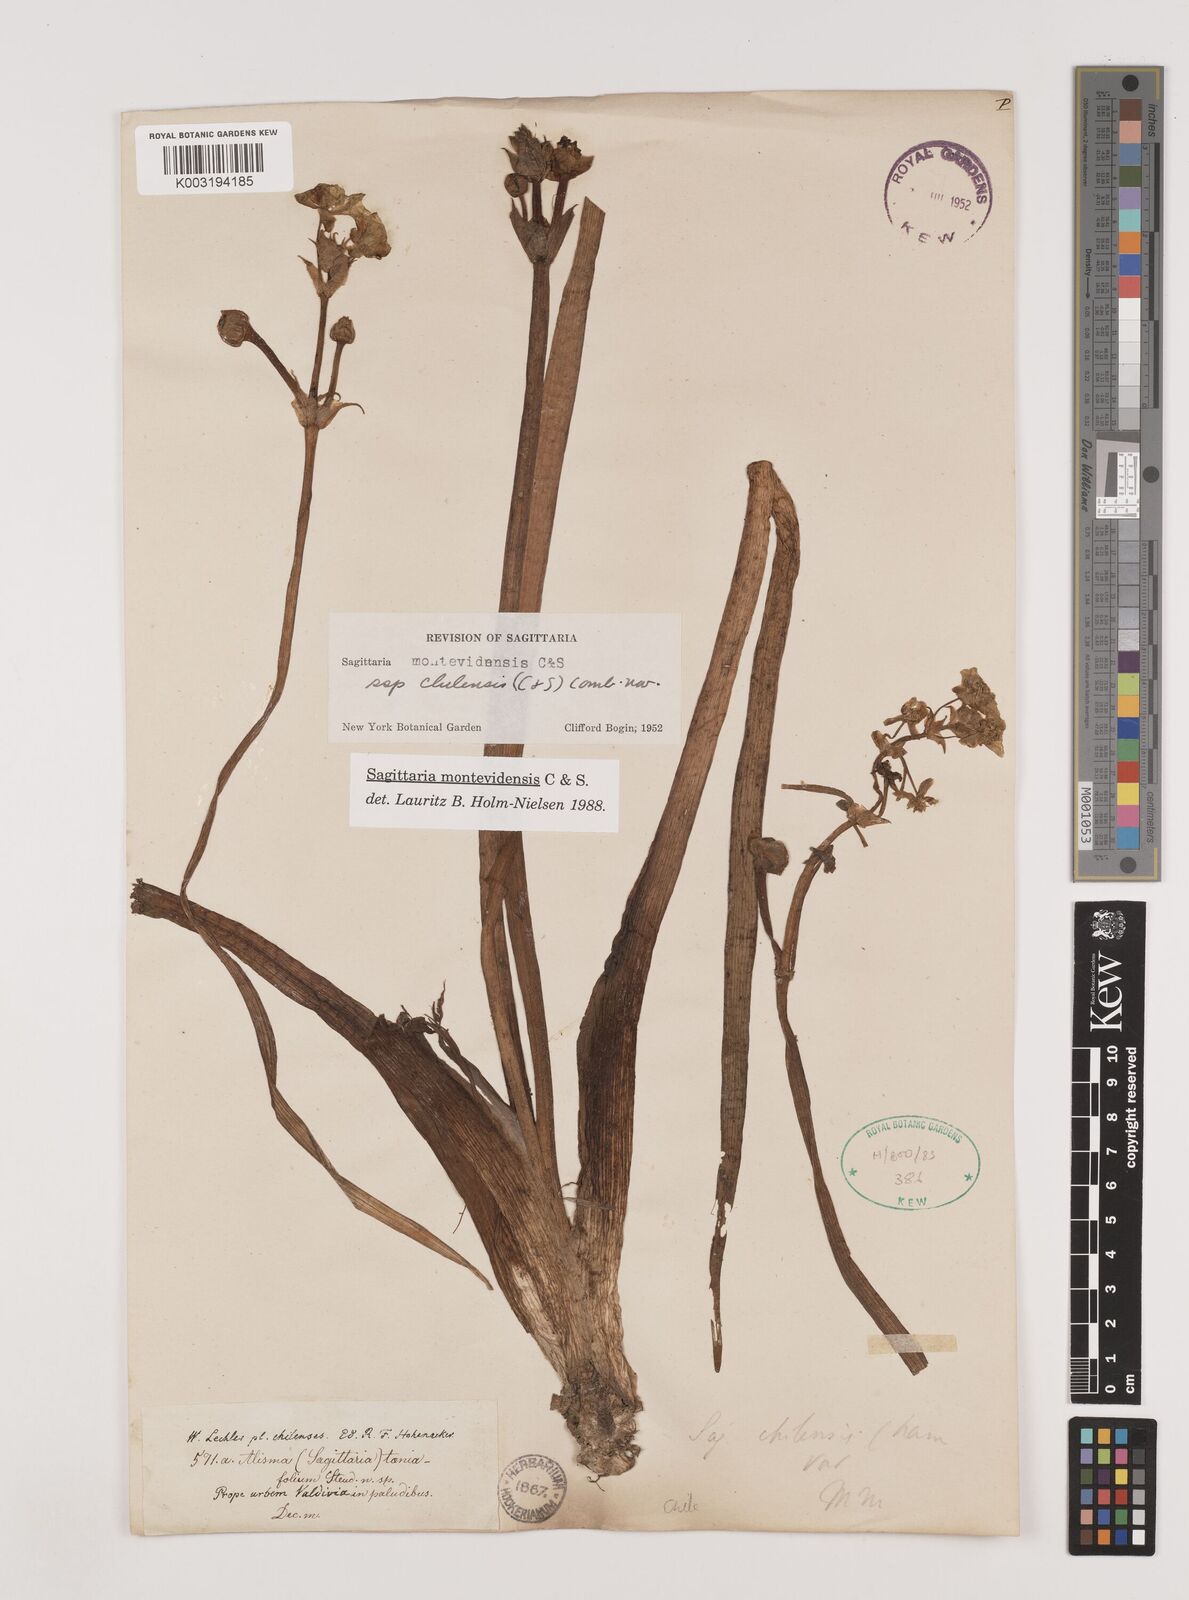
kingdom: Plantae
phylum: Tracheophyta
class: Liliopsida
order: Alismatales
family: Alismataceae
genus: Sagittaria
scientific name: Sagittaria montevidensis
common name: Giant arrowhead
